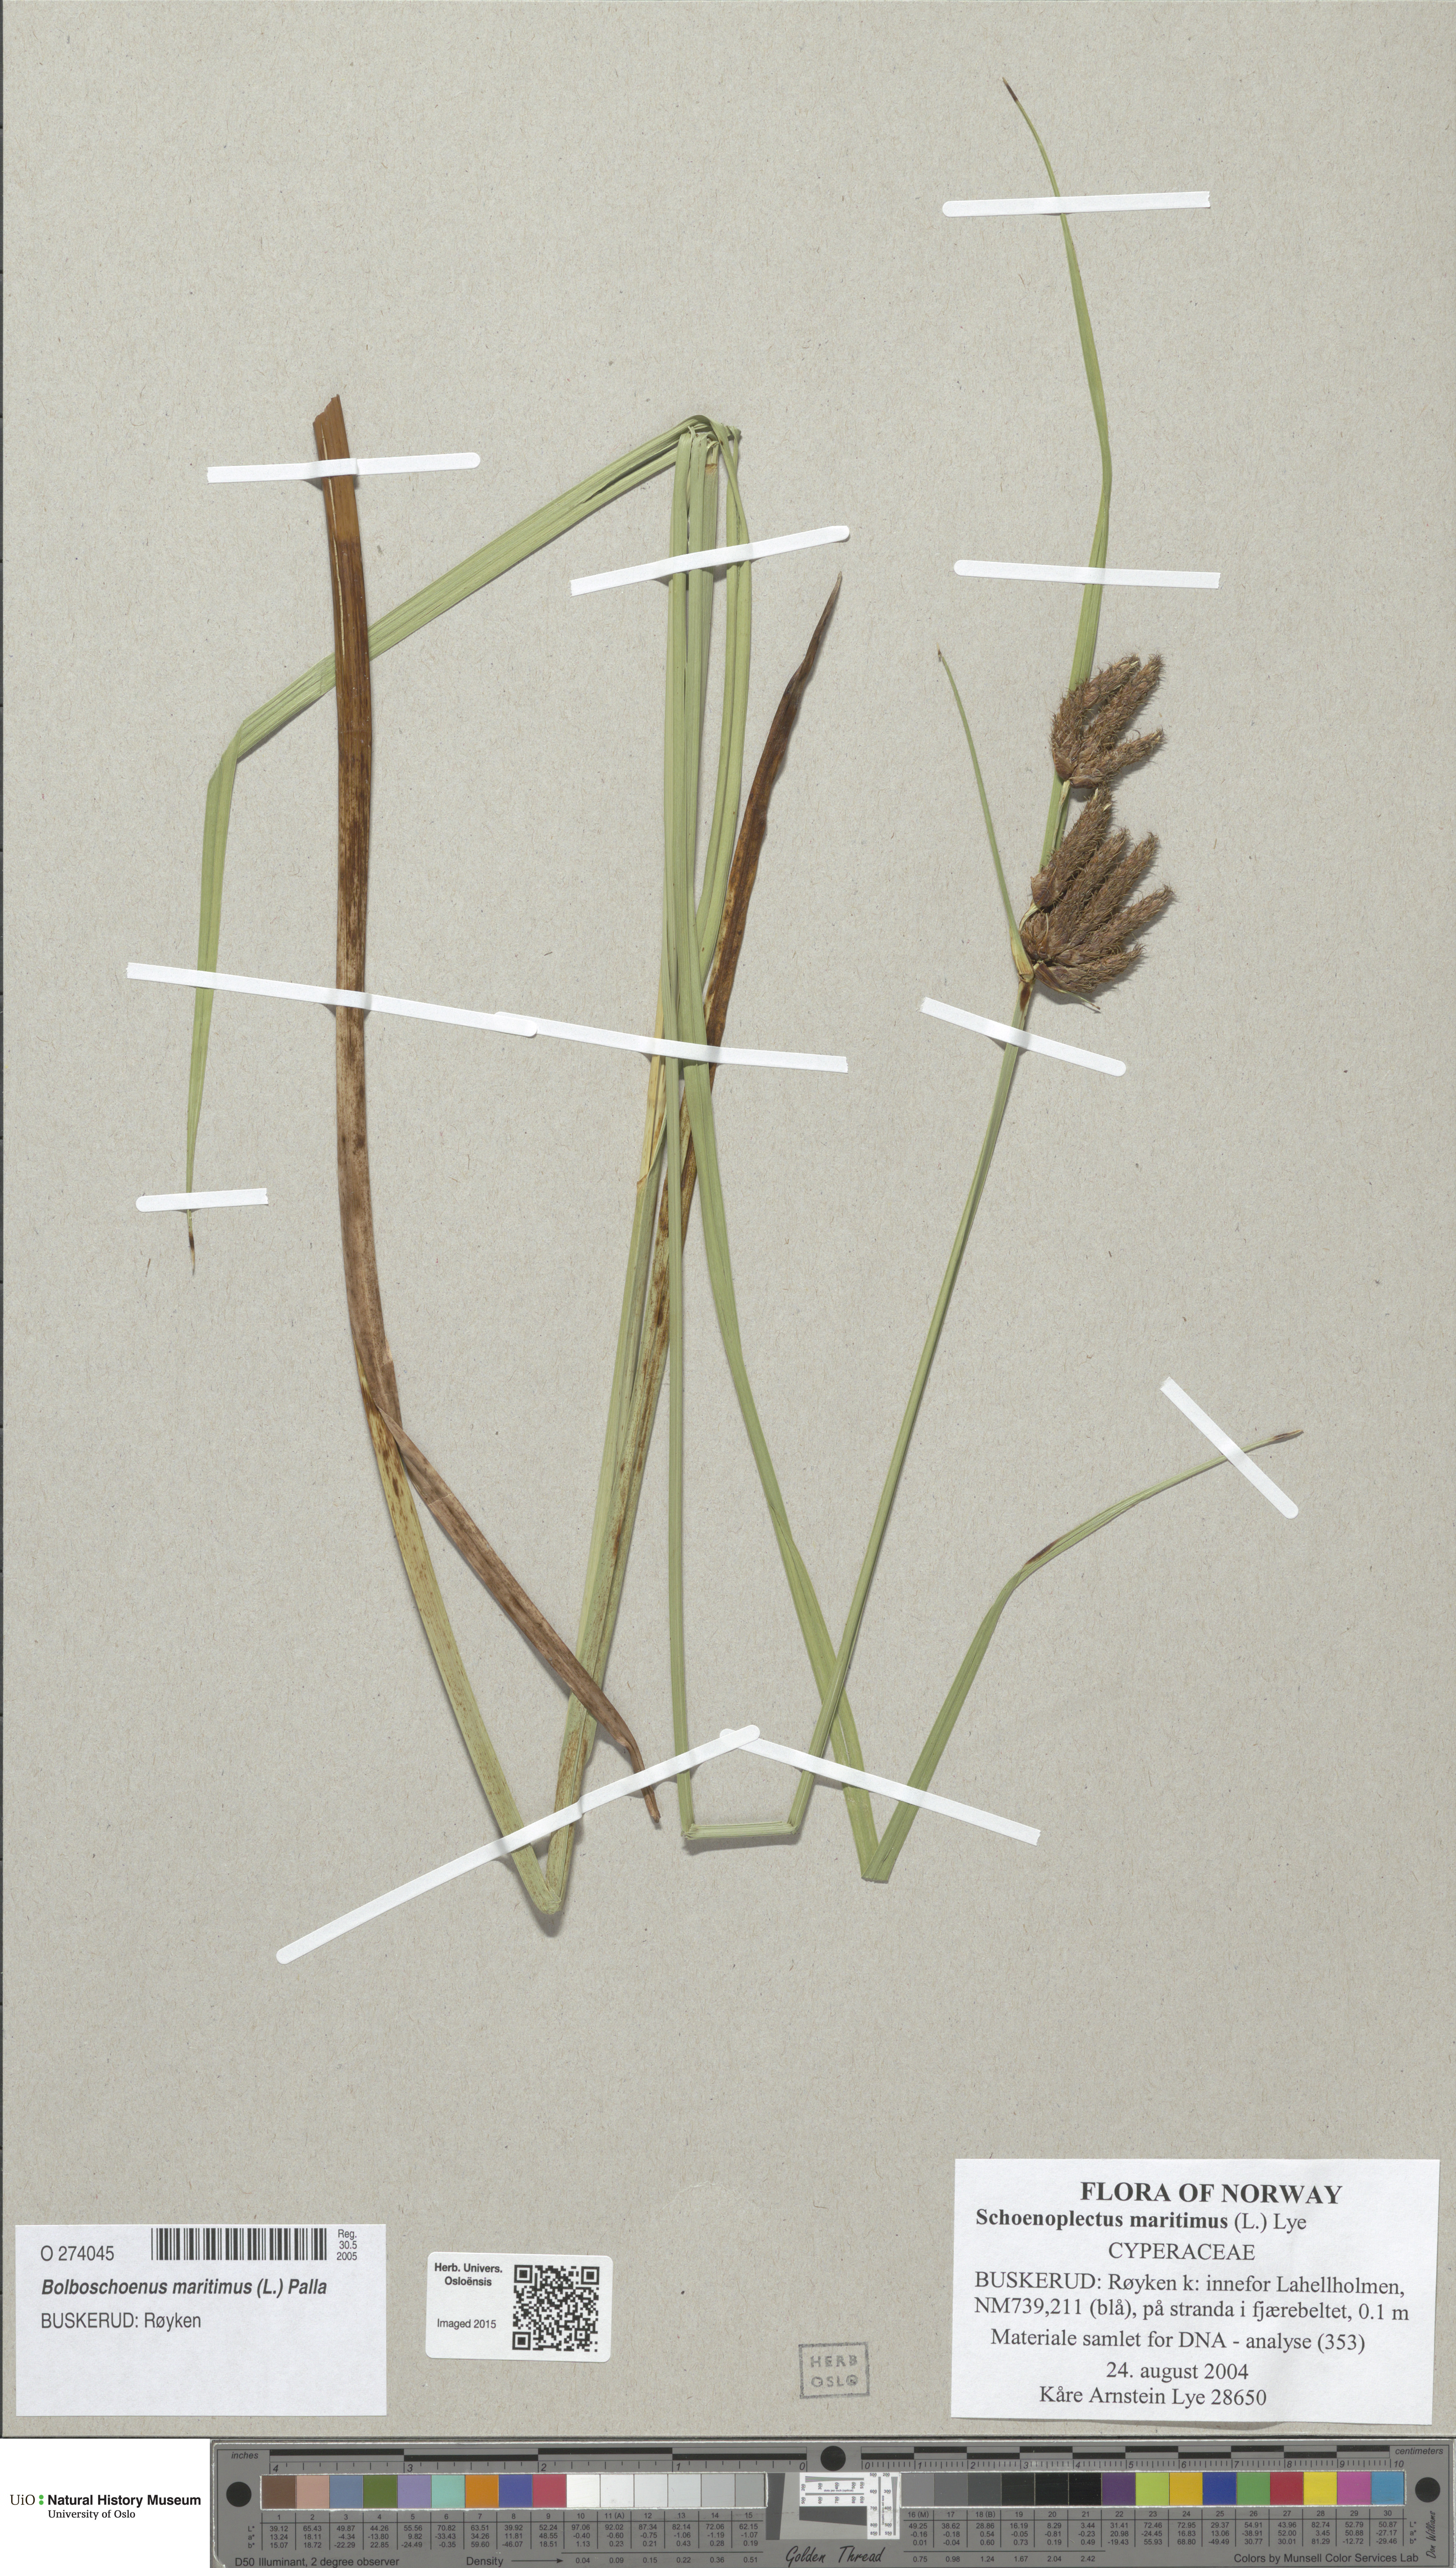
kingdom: Plantae
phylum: Tracheophyta
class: Liliopsida
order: Poales
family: Cyperaceae
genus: Bolboschoenus
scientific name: Bolboschoenus maritimus
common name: Sea club-rush
